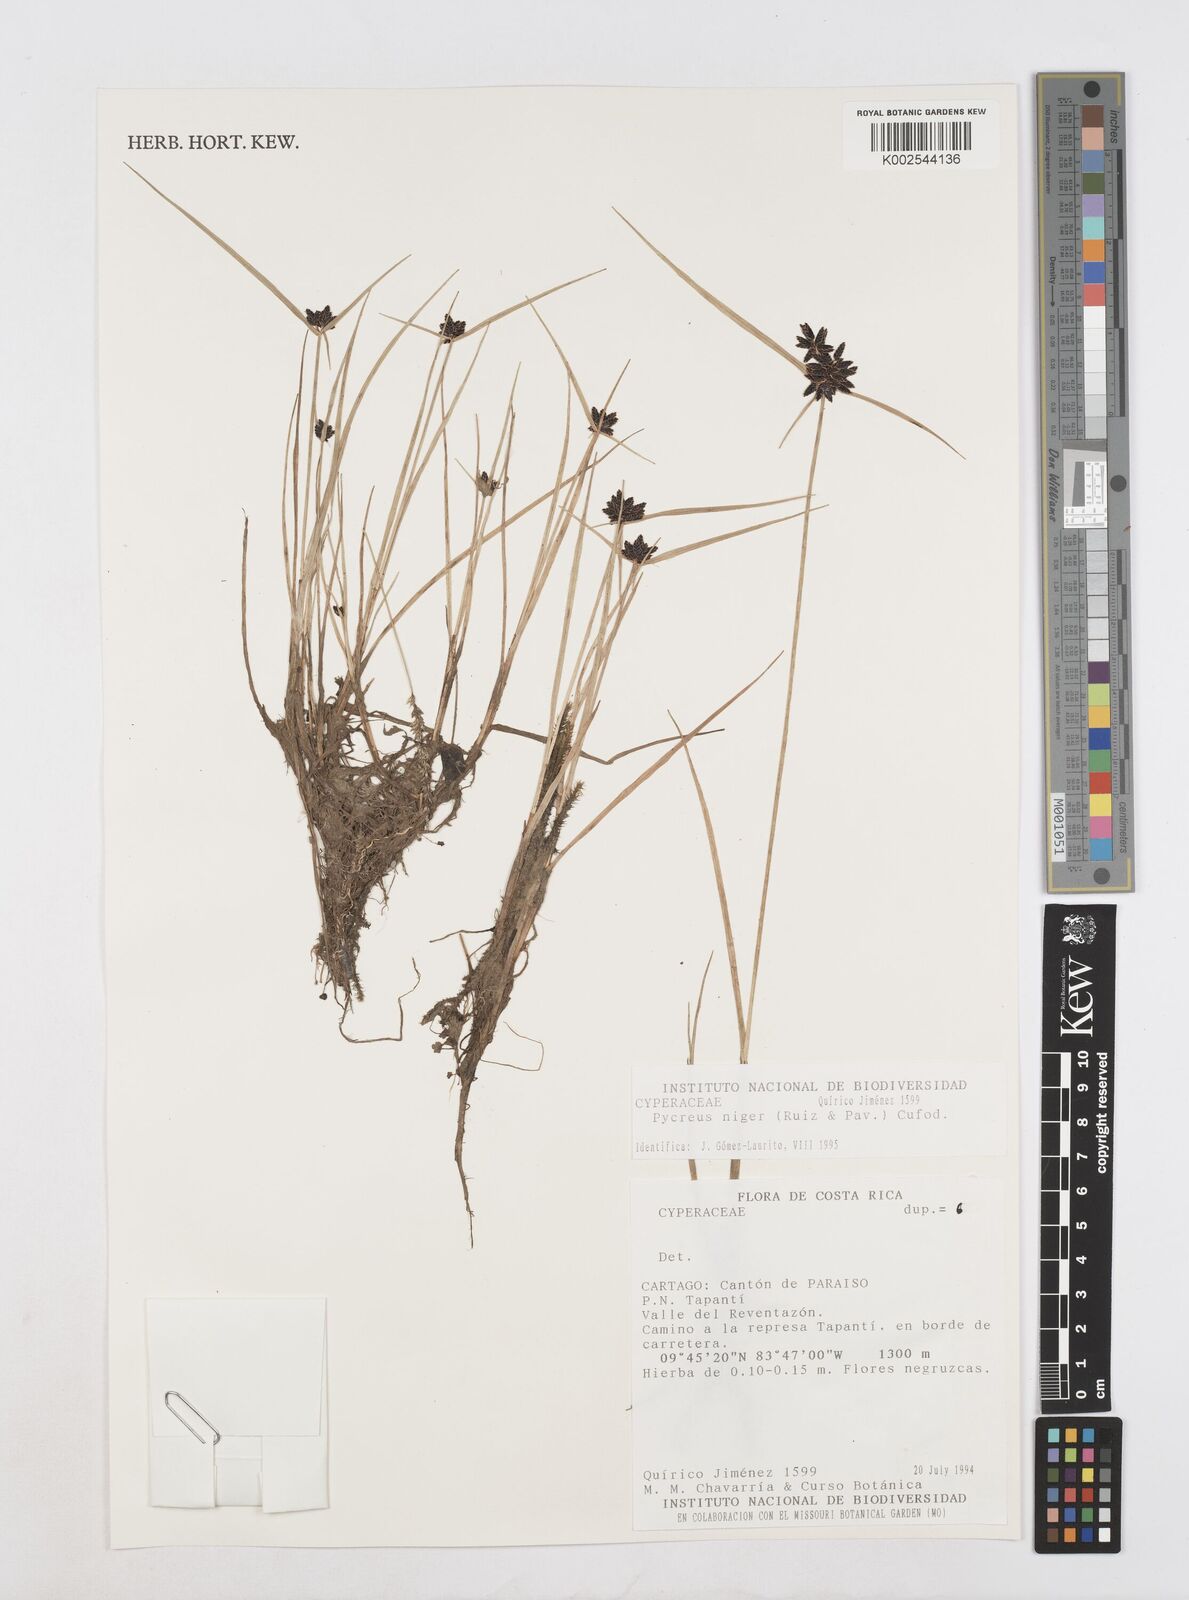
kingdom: Plantae
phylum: Tracheophyta
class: Liliopsida
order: Poales
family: Cyperaceae
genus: Cyperus
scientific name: Cyperus melanostachyus
